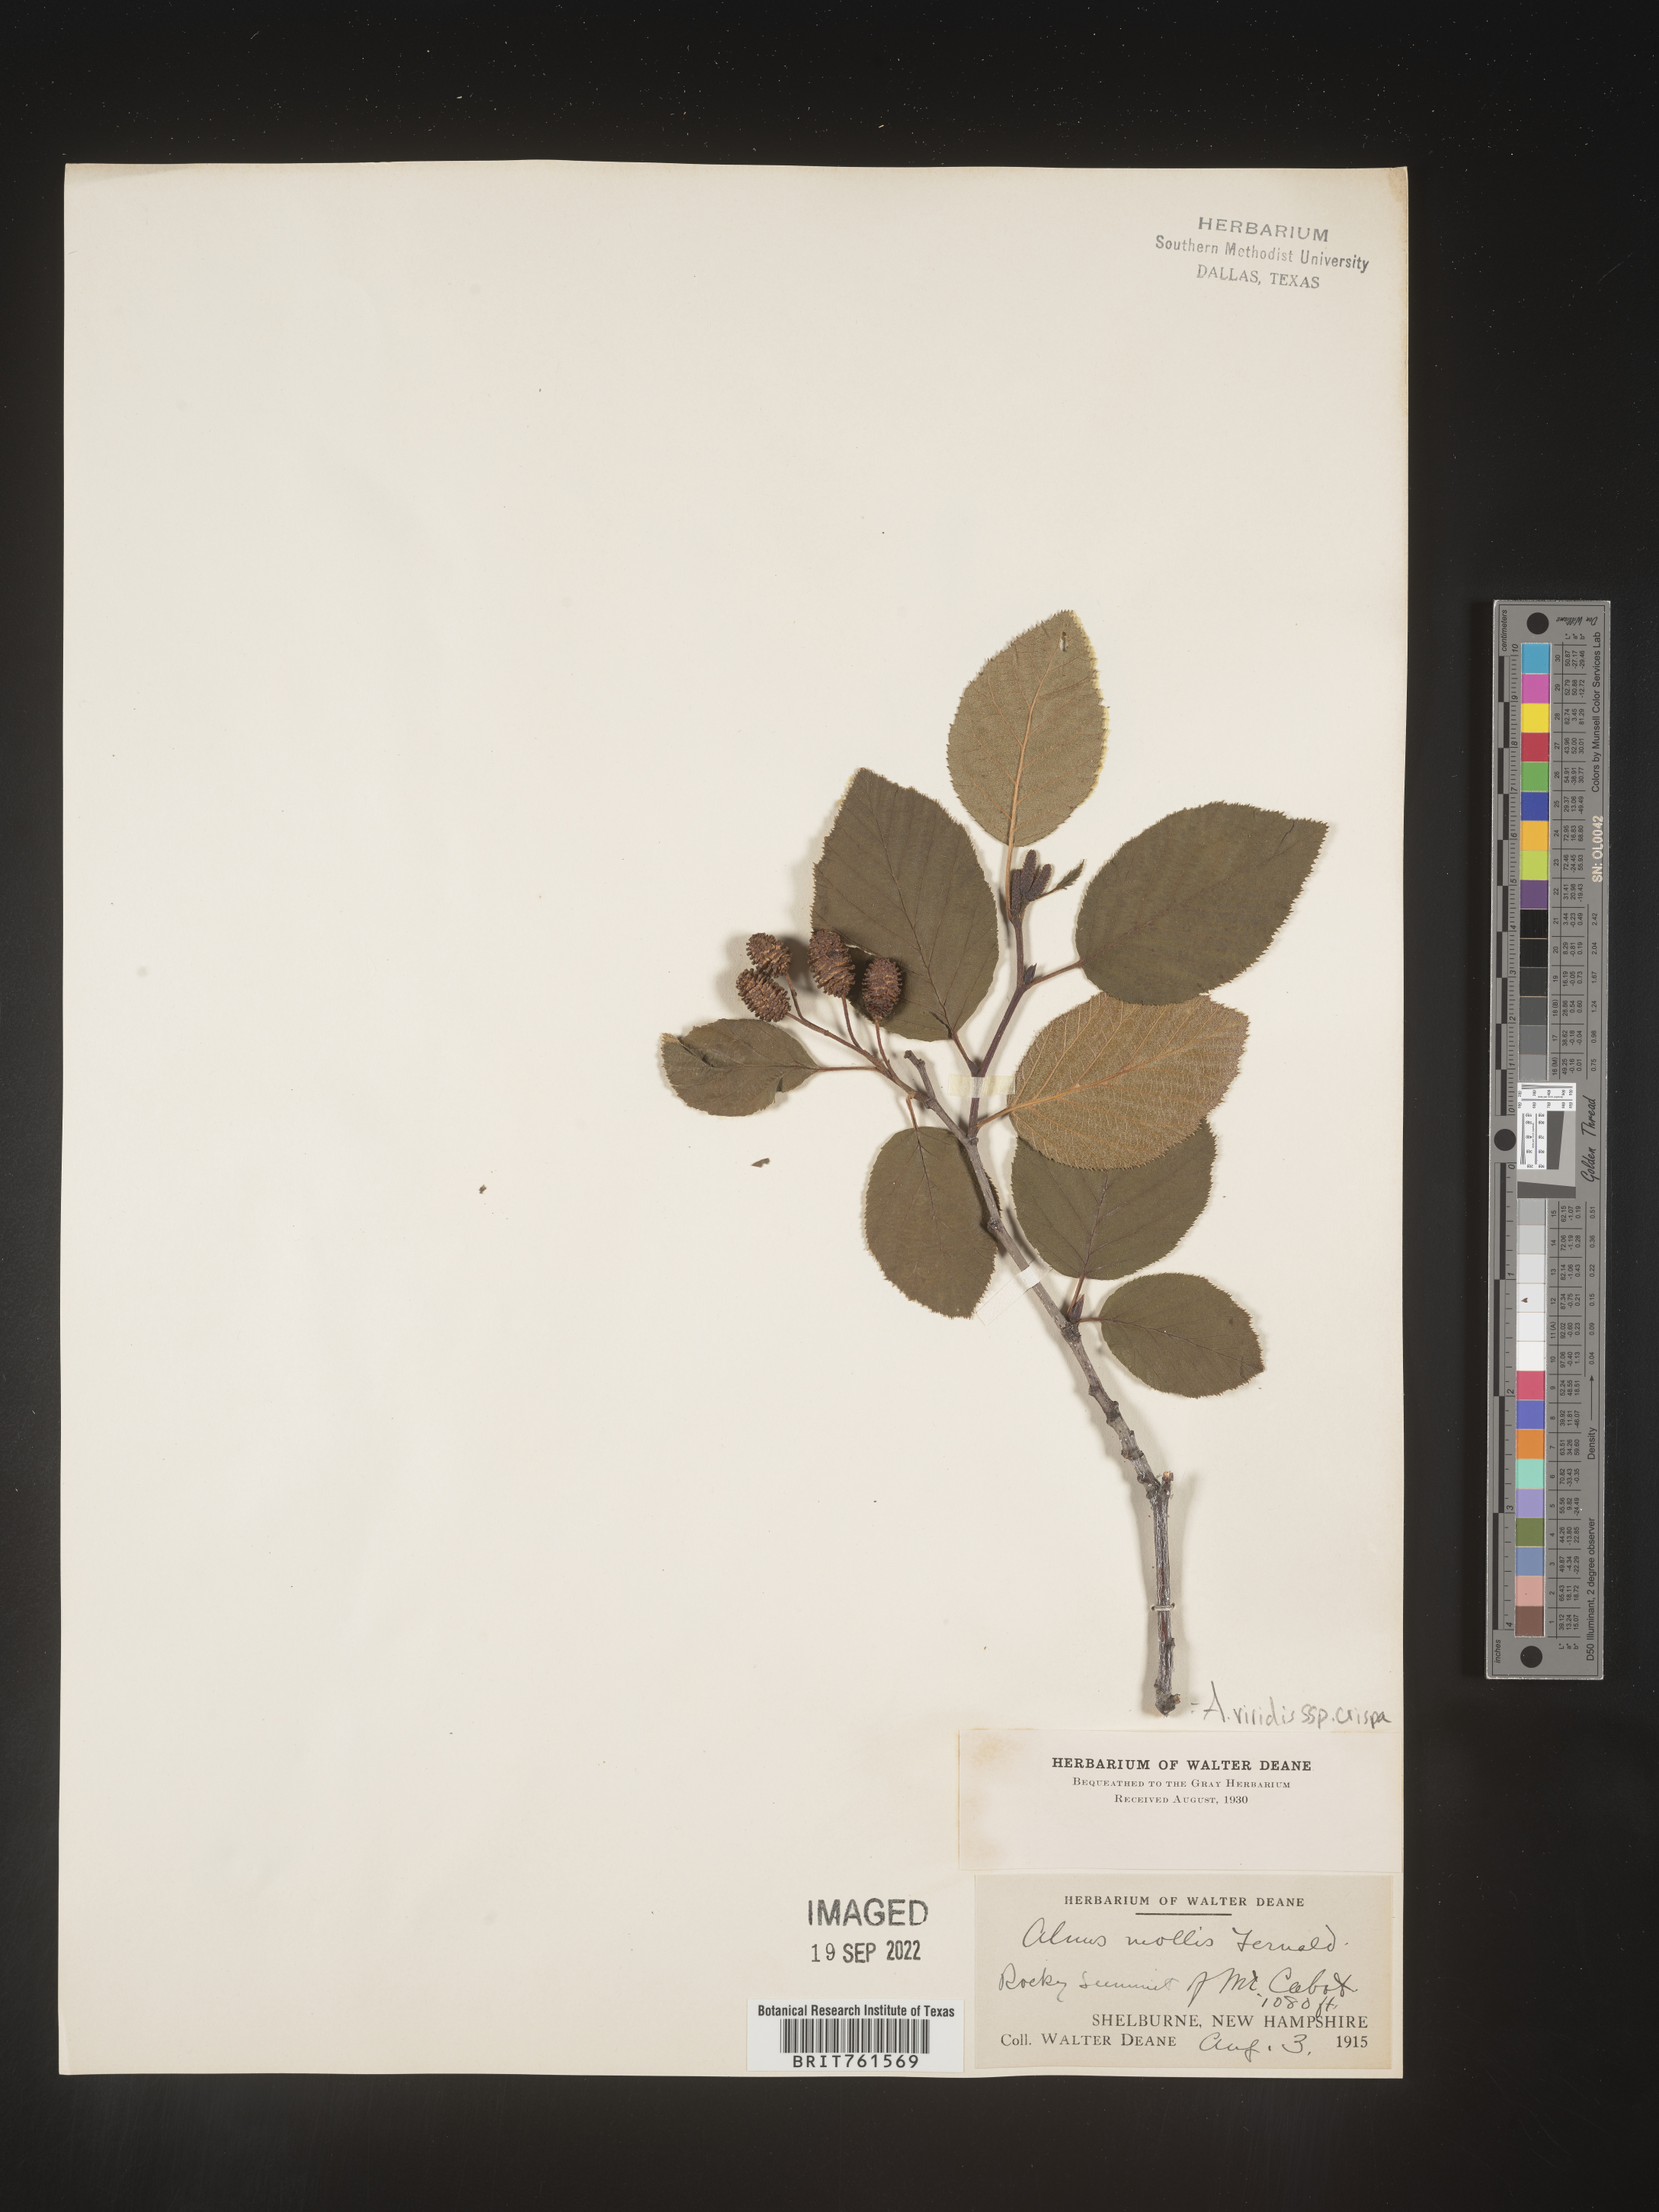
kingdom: Plantae
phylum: Tracheophyta
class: Magnoliopsida
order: Fagales
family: Betulaceae
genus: Alnus
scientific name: Alnus alnobetula
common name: Green alder
